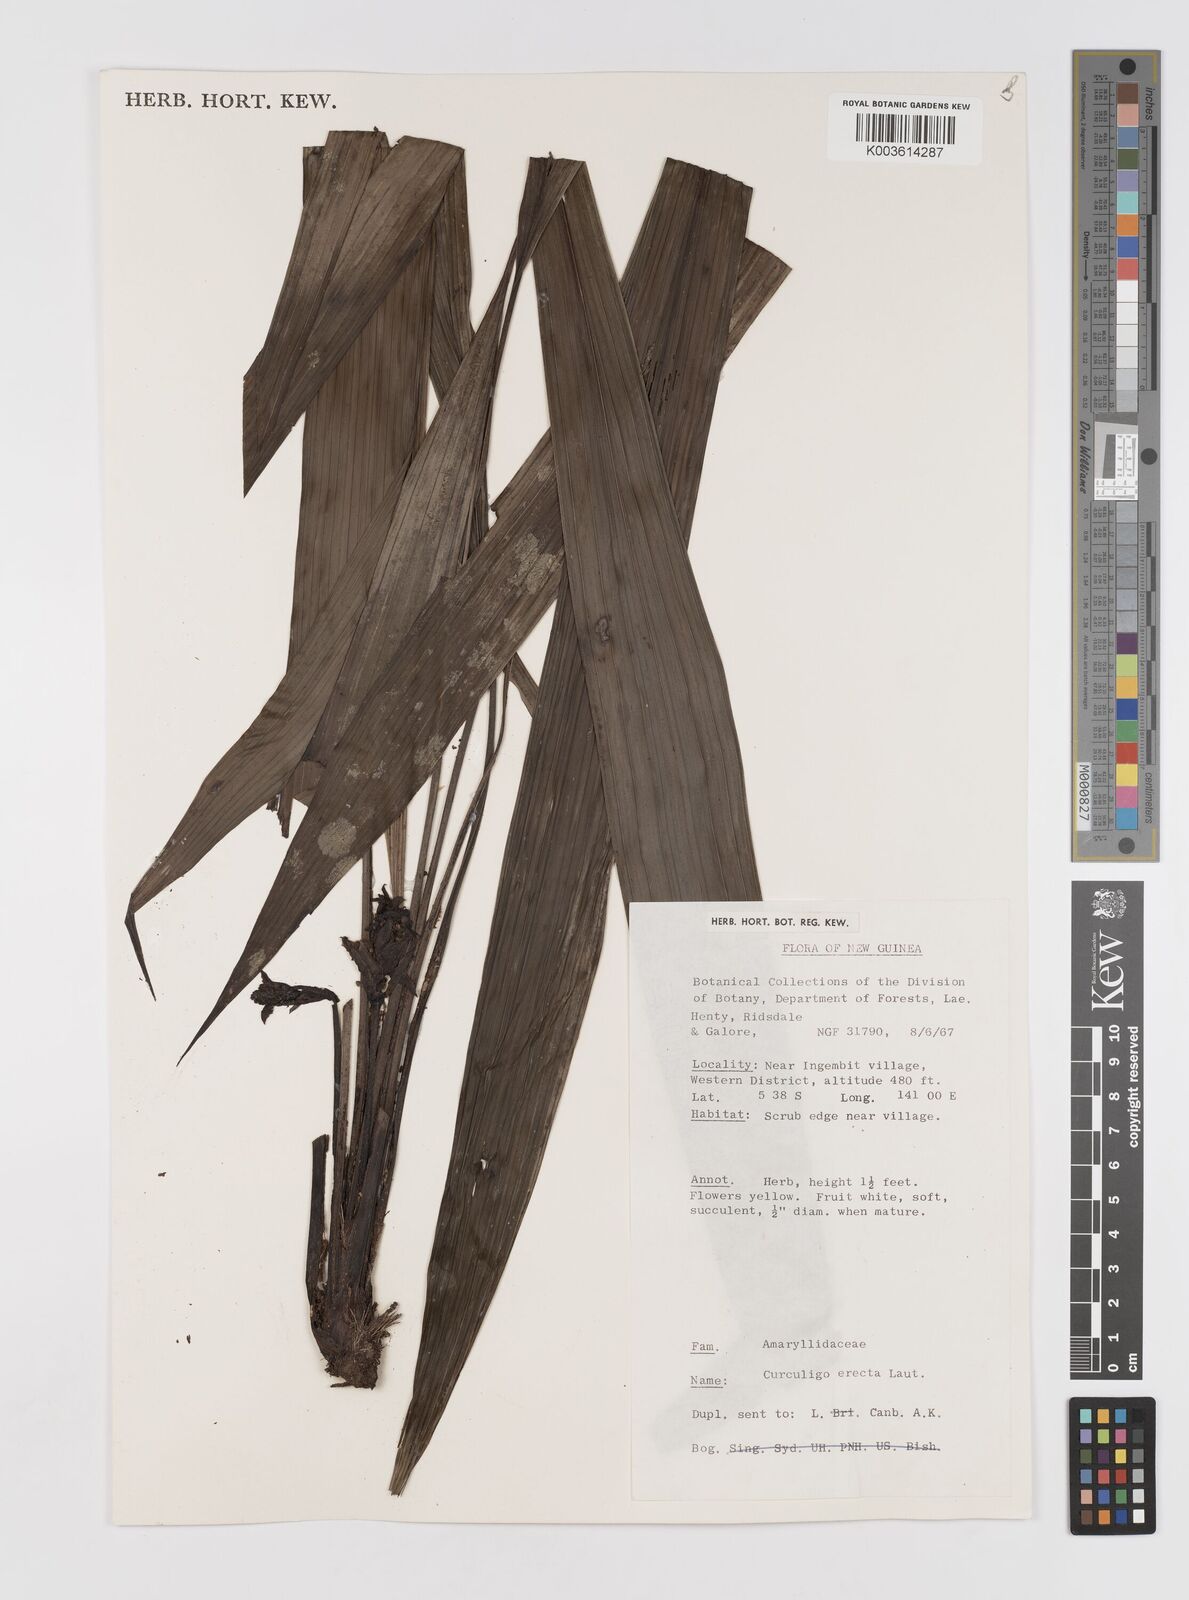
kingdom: Plantae
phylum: Tracheophyta
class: Liliopsida
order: Asparagales
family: Hypoxidaceae
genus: Curculigo
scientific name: Curculigo erecta
